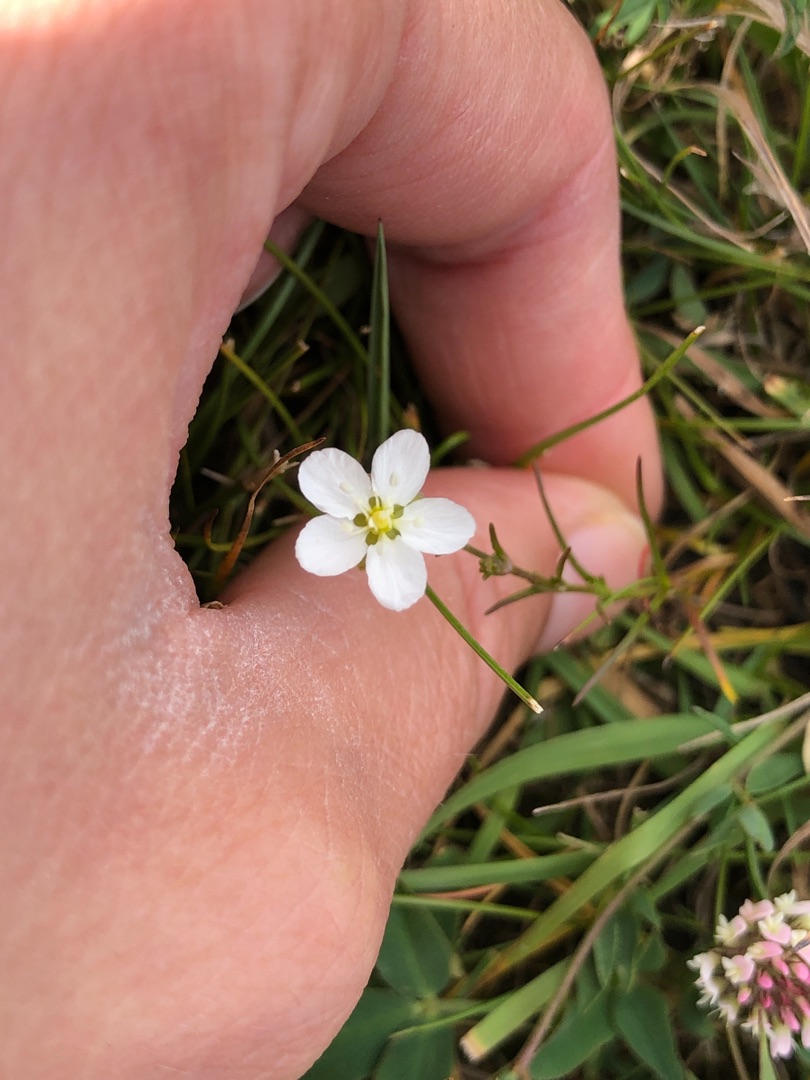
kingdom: Plantae
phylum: Tracheophyta
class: Magnoliopsida
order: Caryophyllales
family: Caryophyllaceae
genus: Sagina
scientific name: Sagina nodosa
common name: Knude-firling
